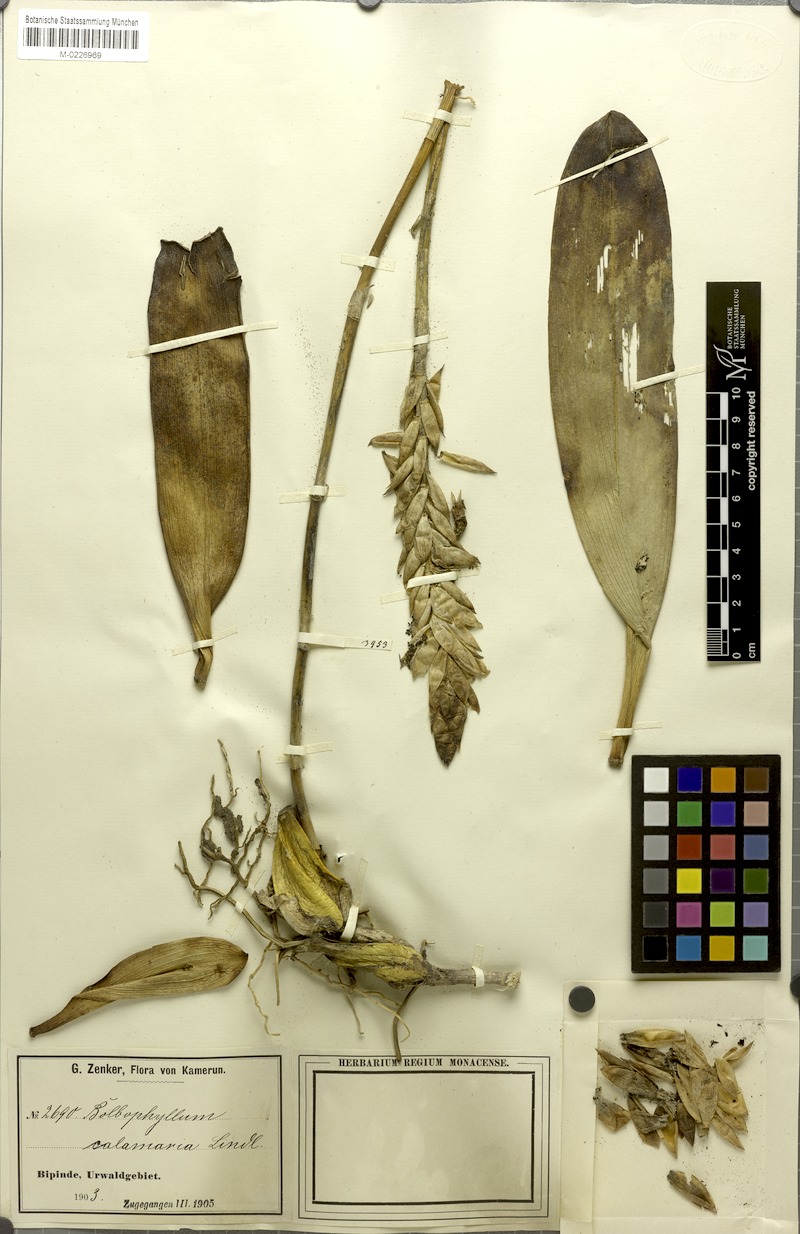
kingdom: Plantae
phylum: Tracheophyta
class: Liliopsida
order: Asparagales
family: Orchidaceae
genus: Bulbophyllum
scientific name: Bulbophyllum saltatorium
